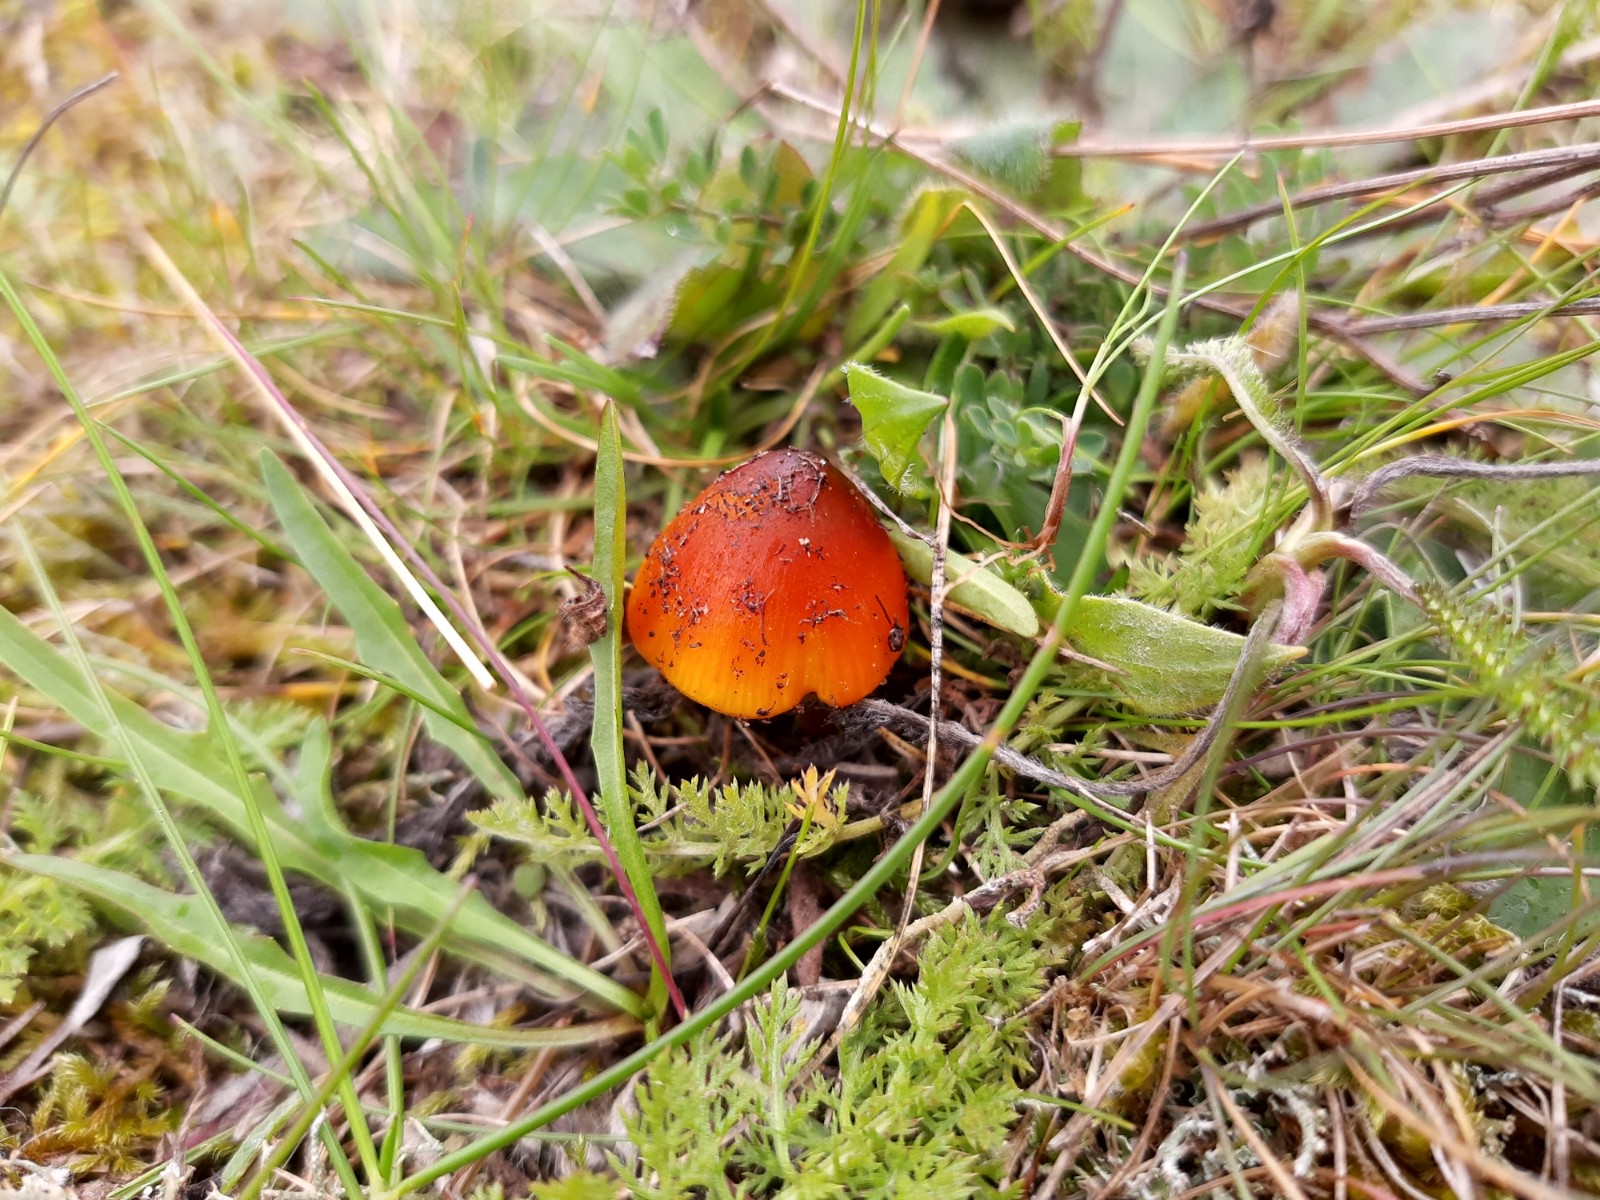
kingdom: Fungi
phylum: Basidiomycota
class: Agaricomycetes
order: Agaricales
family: Hygrophoraceae
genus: Hygrocybe
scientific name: Hygrocybe conica
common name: kegle-vokshat
